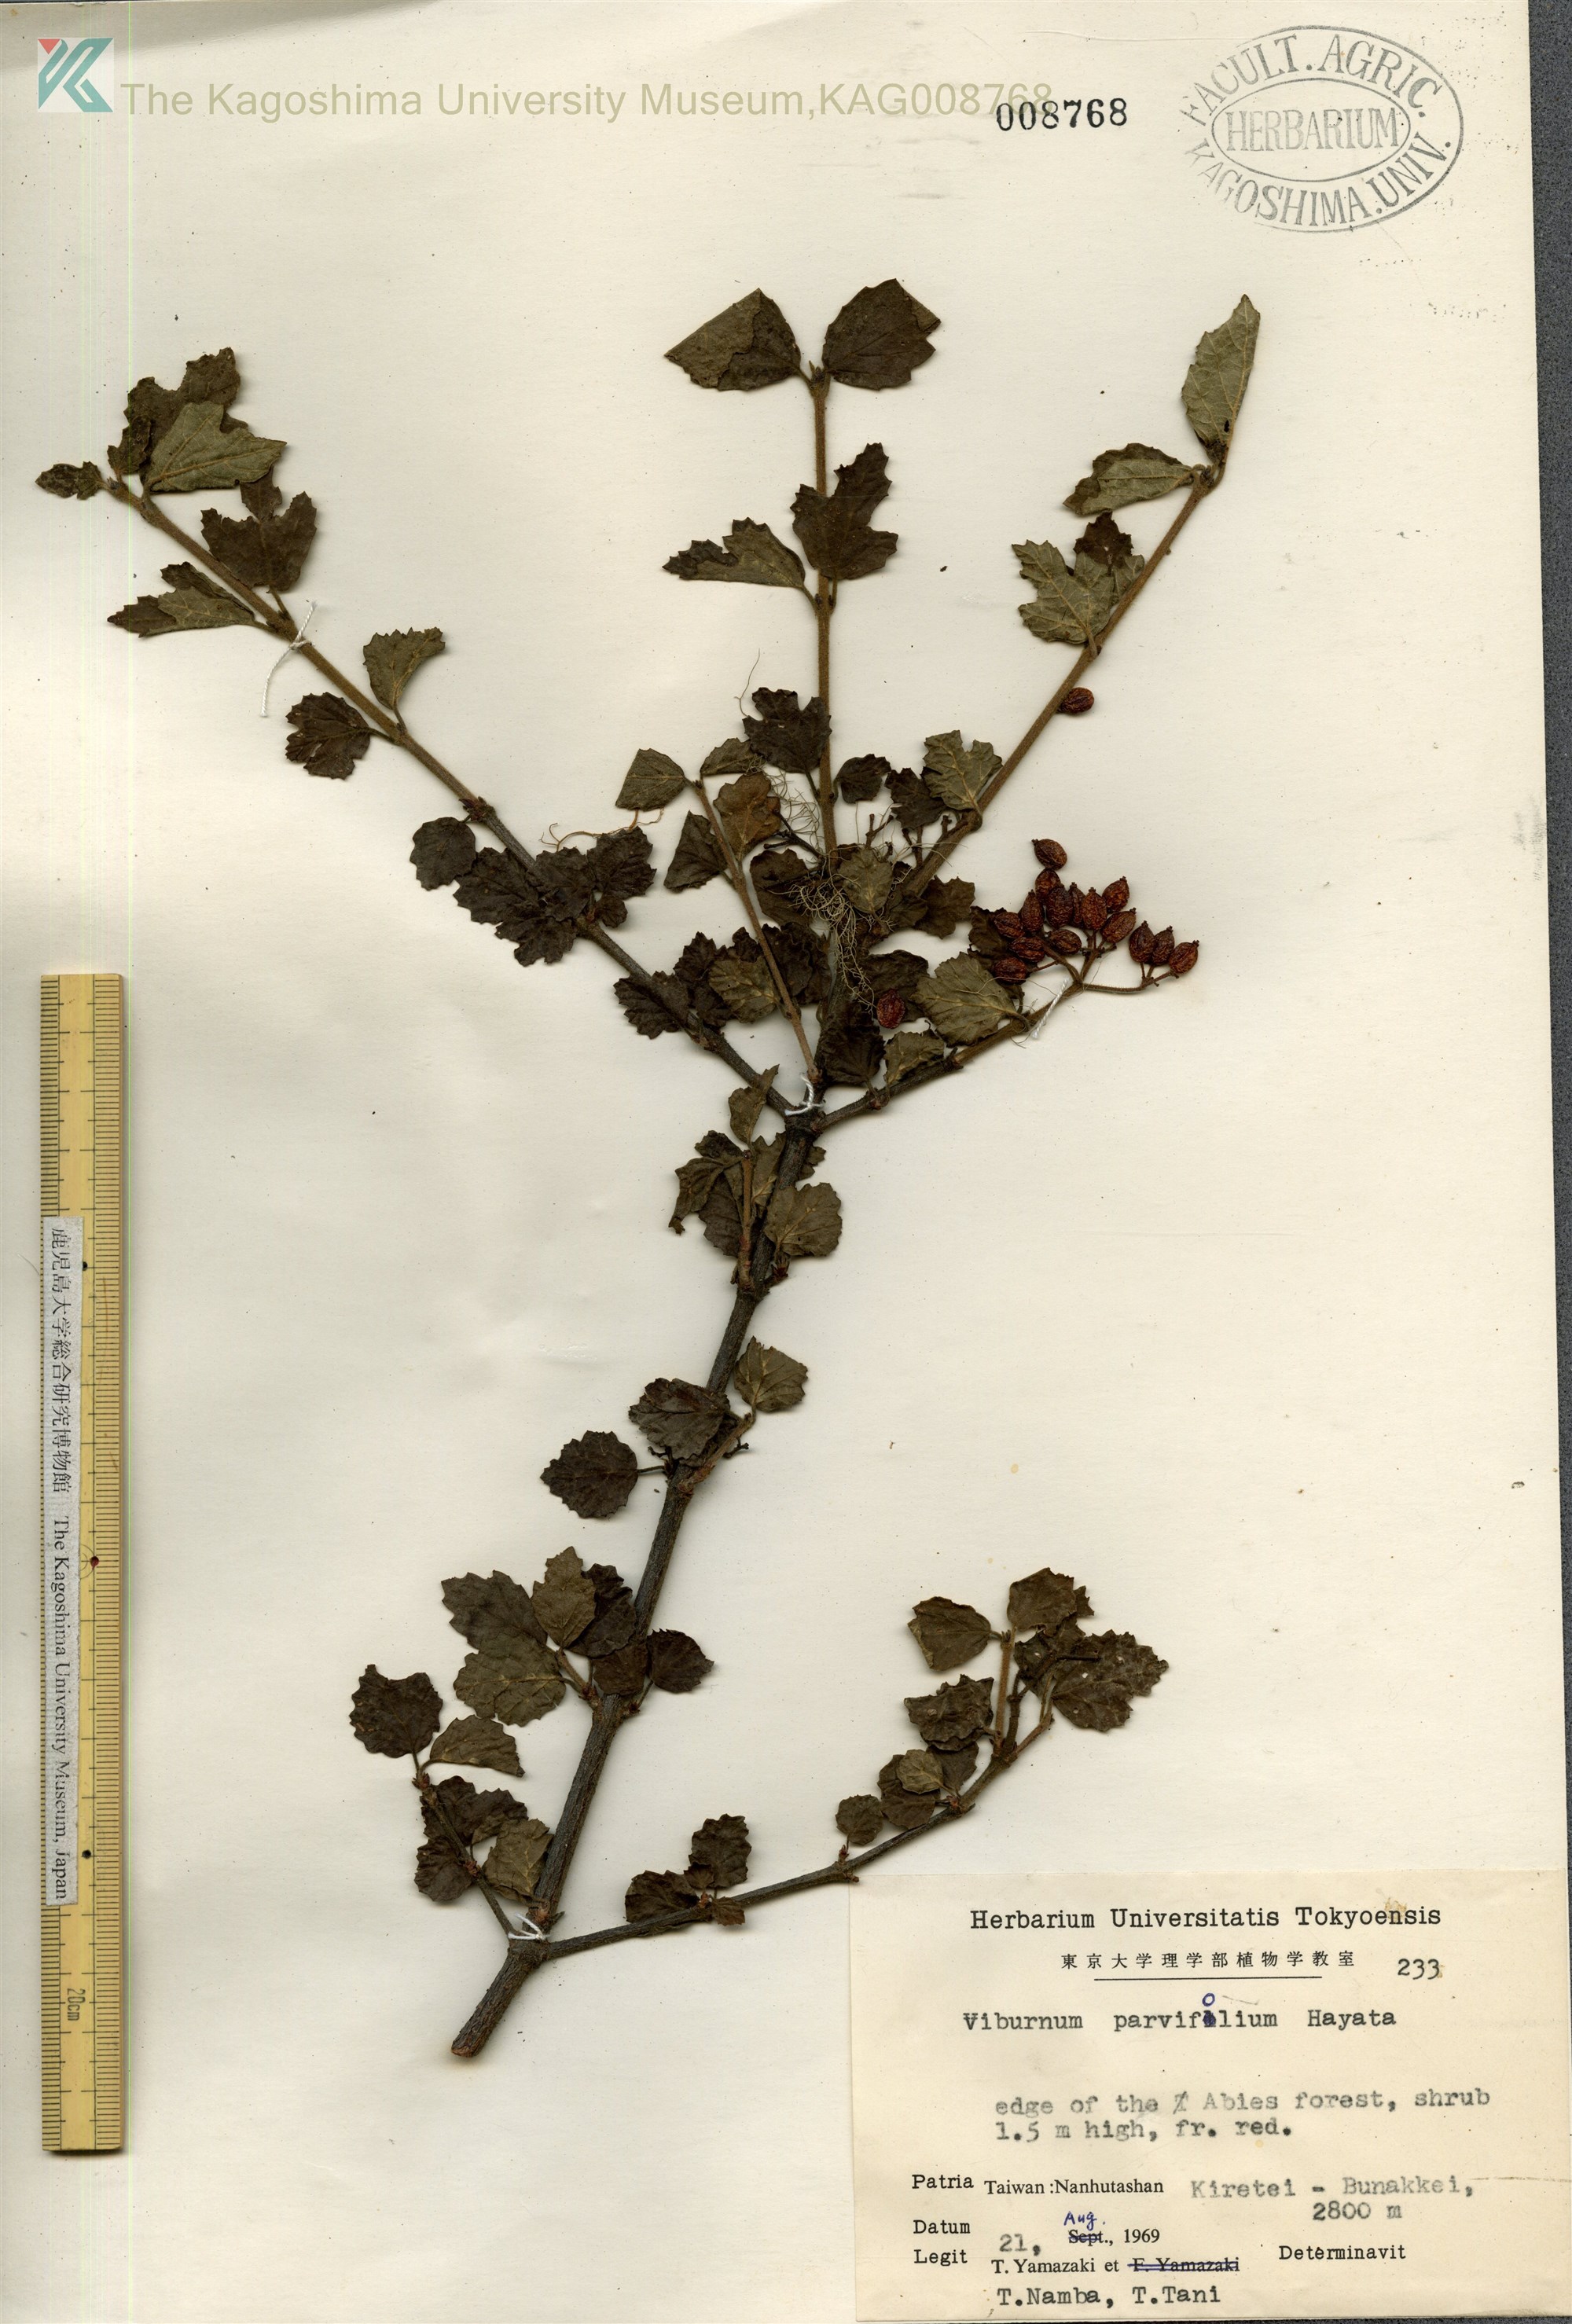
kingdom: Plantae
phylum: Tracheophyta
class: Magnoliopsida
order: Dipsacales
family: Viburnaceae
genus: Viburnum
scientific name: Viburnum parvifolium
